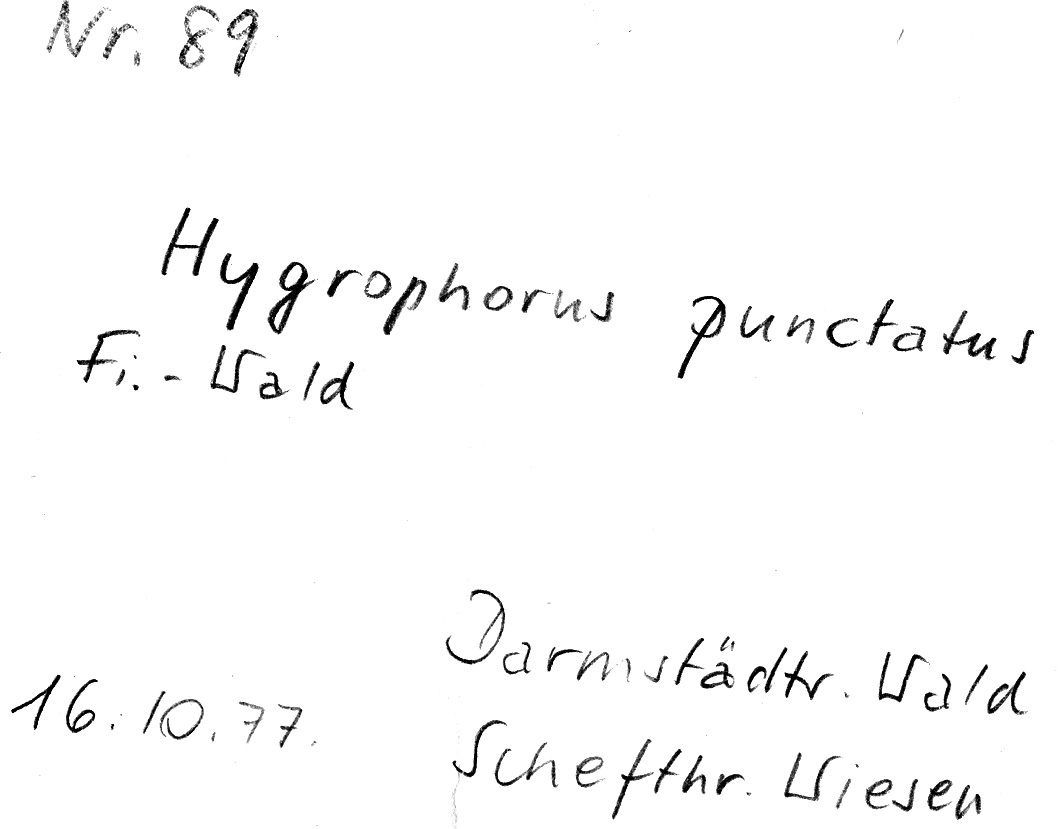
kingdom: Fungi
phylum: Basidiomycota
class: Agaricomycetes
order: Agaricales
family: Hygrophoraceae
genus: Hygrophorus
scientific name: Hygrophorus
